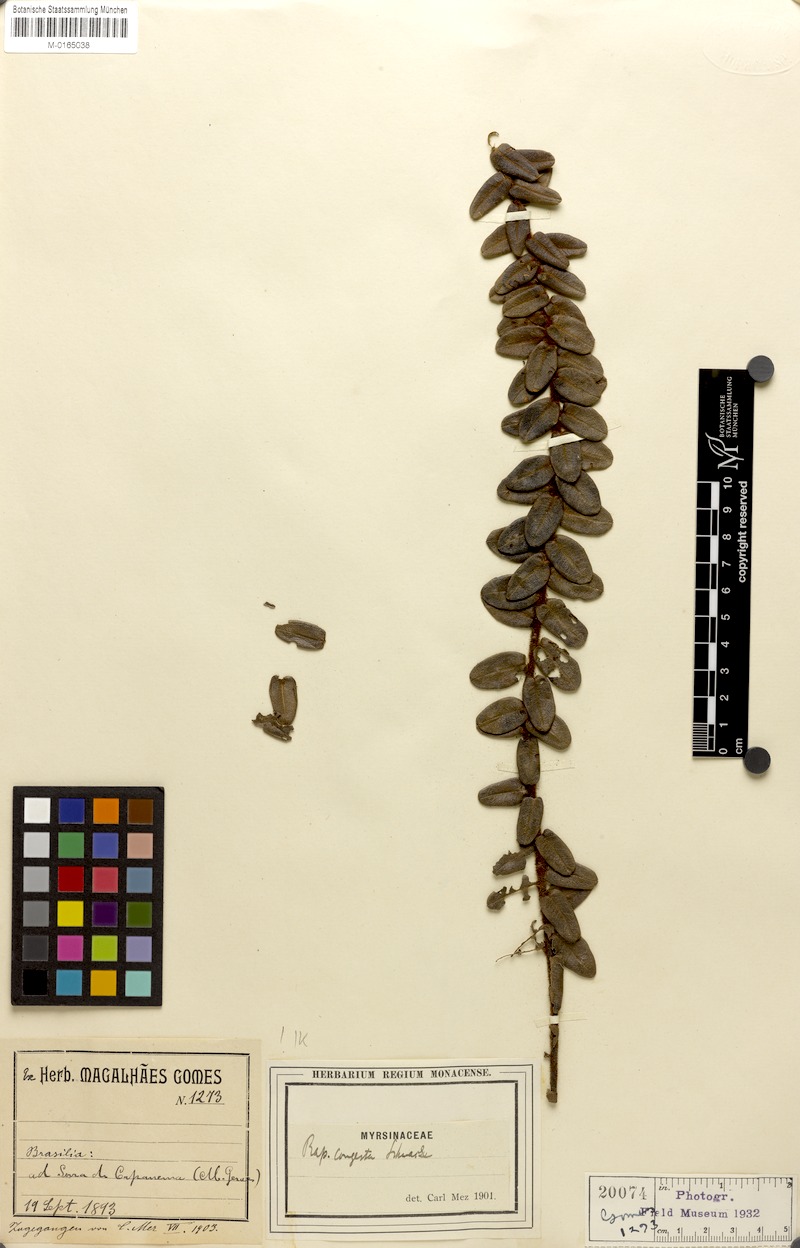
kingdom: Plantae
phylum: Tracheophyta
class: Magnoliopsida
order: Ericales
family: Primulaceae
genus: Myrsine
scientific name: Myrsine congesta
